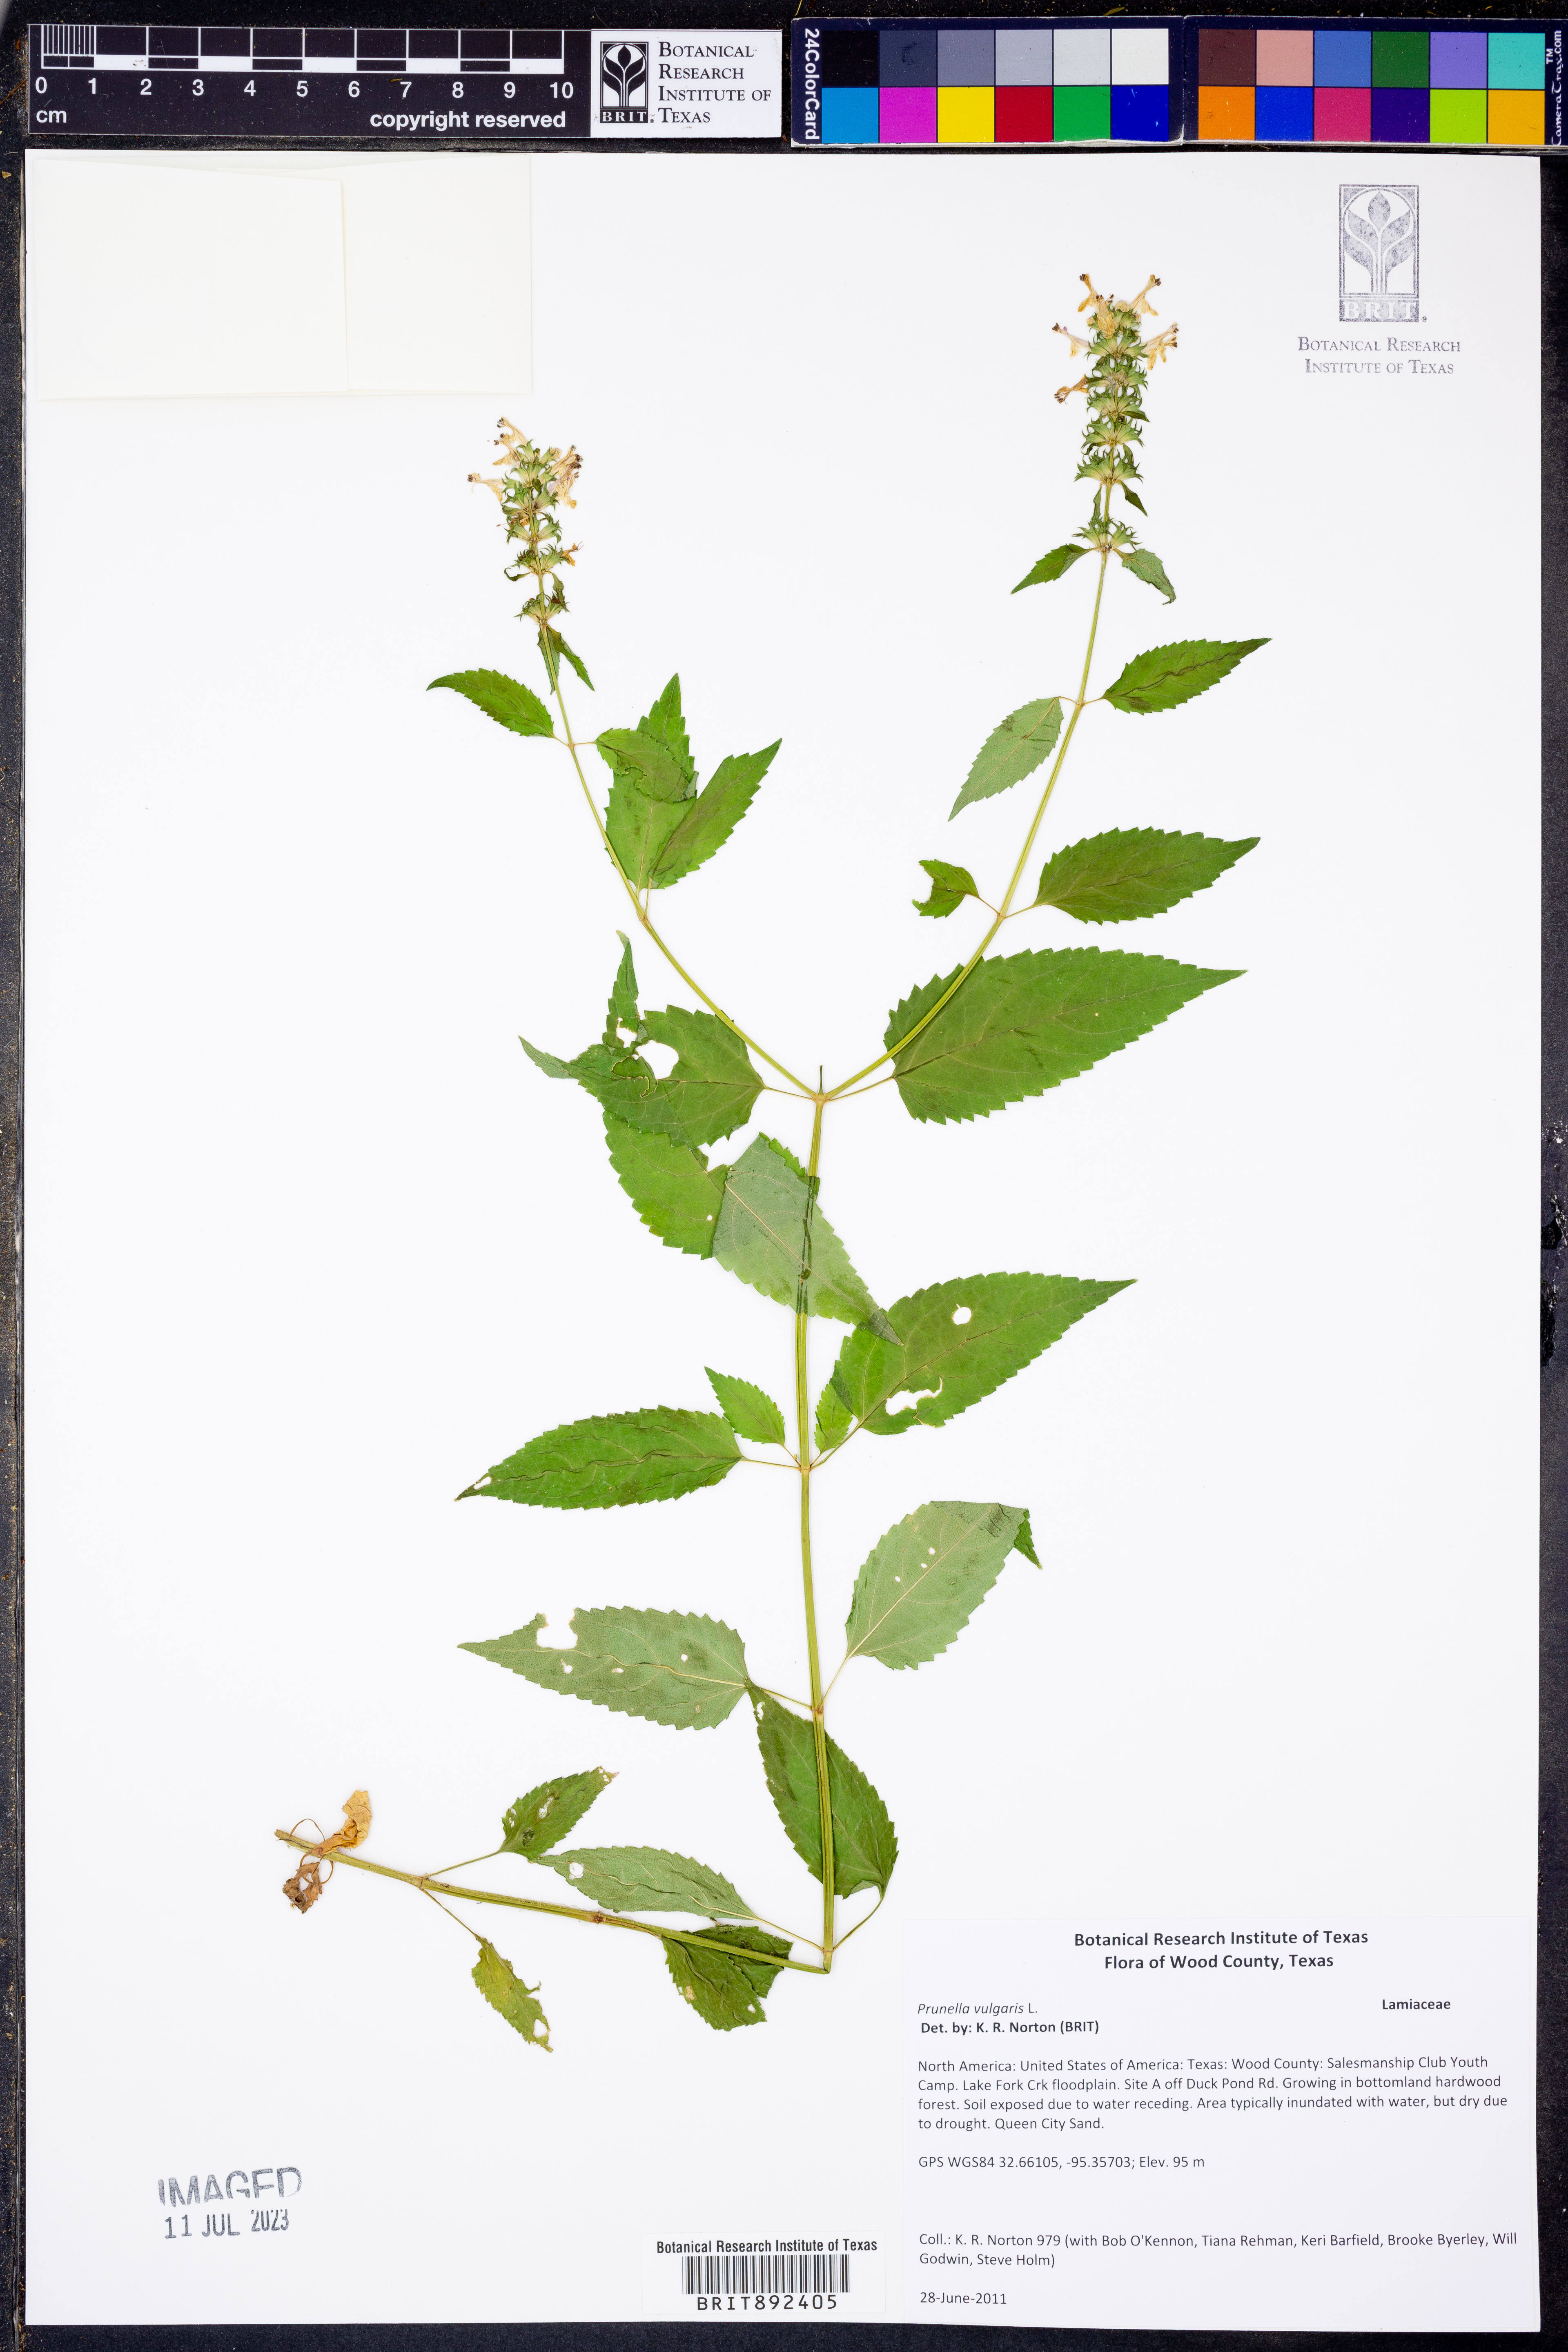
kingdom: Plantae
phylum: Tracheophyta
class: Magnoliopsida
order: Lamiales
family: Lamiaceae
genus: Prunella
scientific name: Prunella vulgaris
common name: Heal-all
